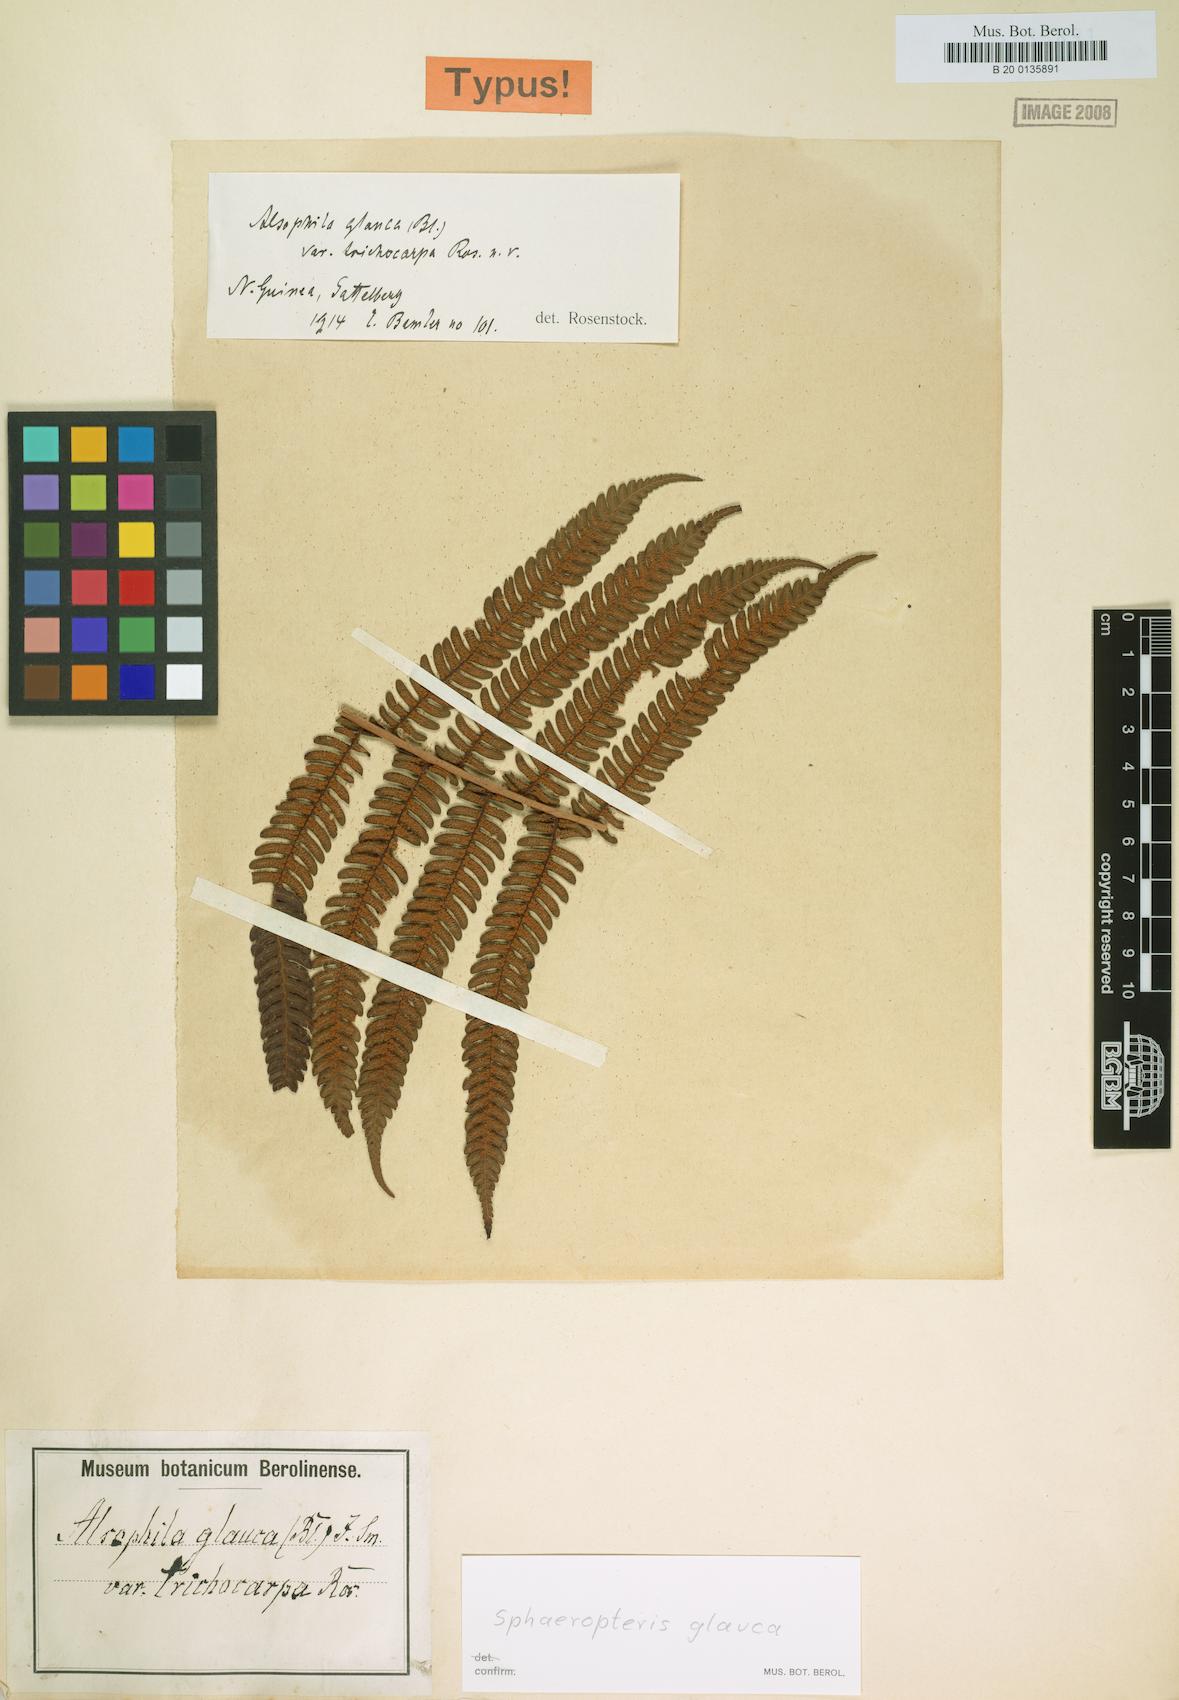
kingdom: Plantae
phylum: Tracheophyta
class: Polypodiopsida
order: Cyatheales
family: Cyatheaceae
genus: Sphaeropteris
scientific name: Sphaeropteris glauca
